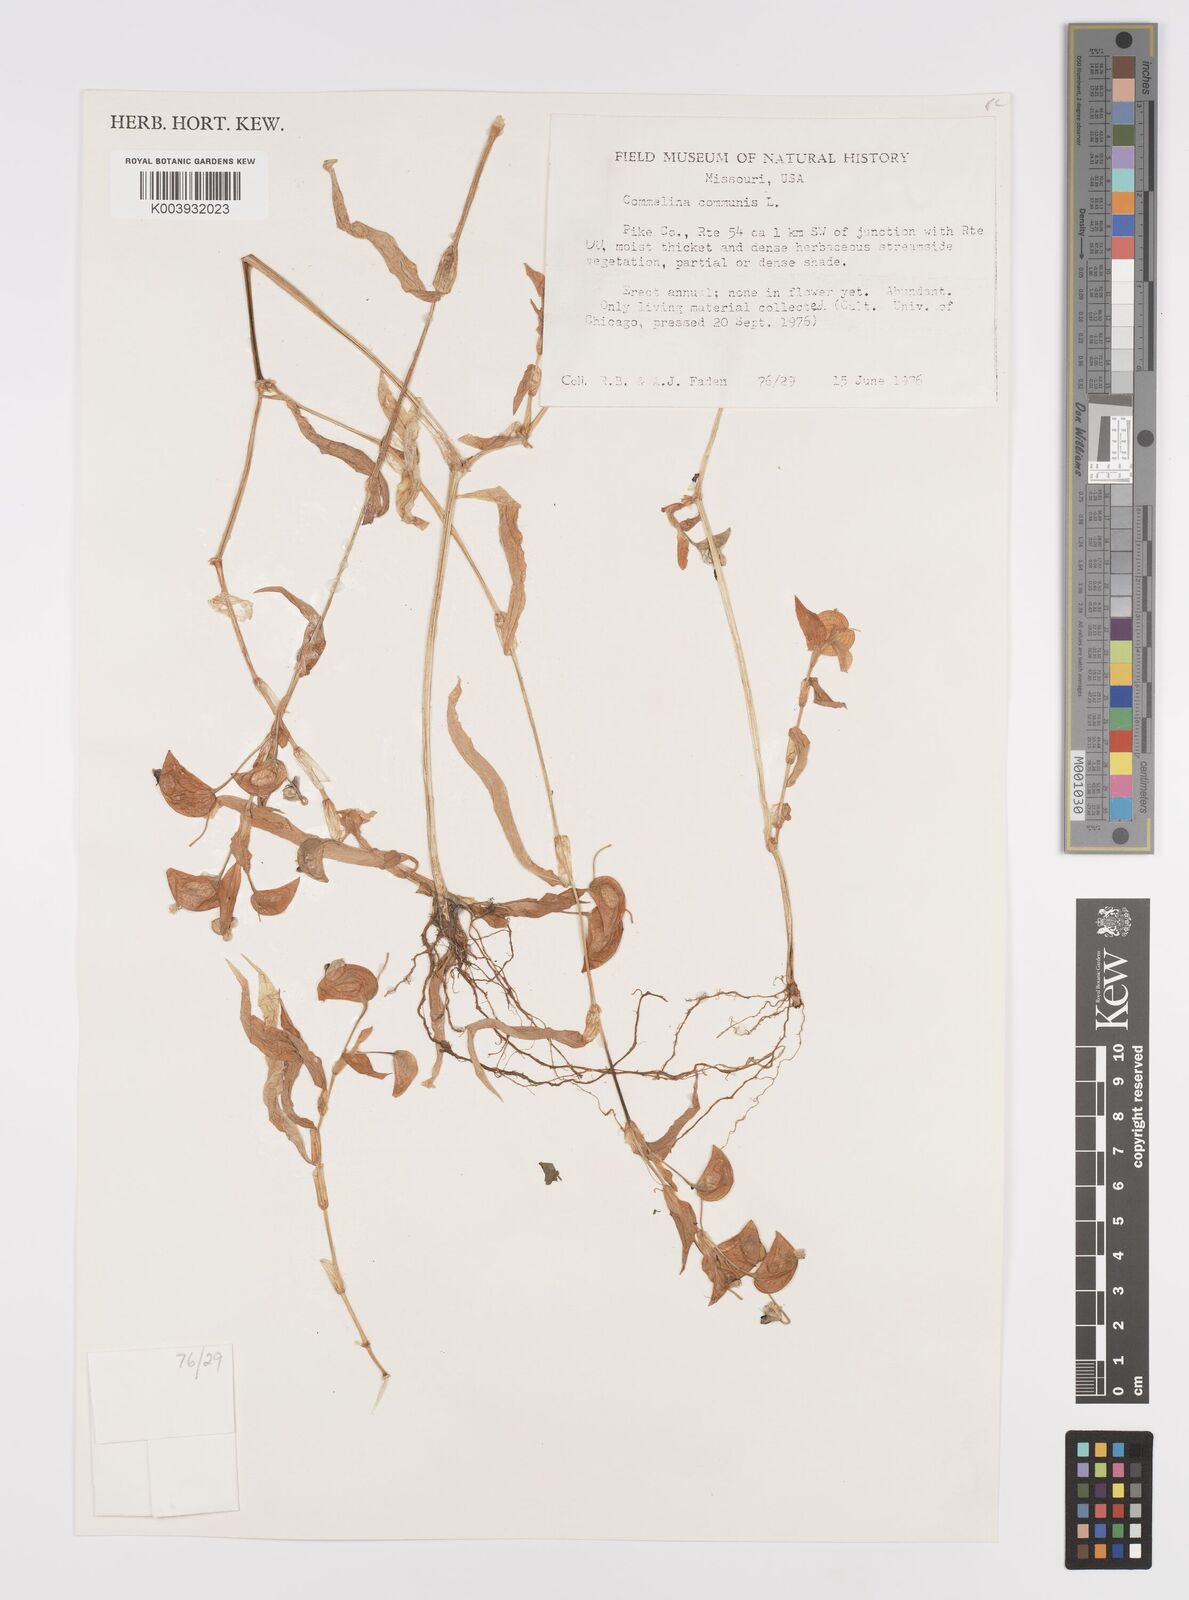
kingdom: Plantae
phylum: Tracheophyta
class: Liliopsida
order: Commelinales
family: Commelinaceae
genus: Commelina
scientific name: Commelina communis
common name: Asiatic dayflower
